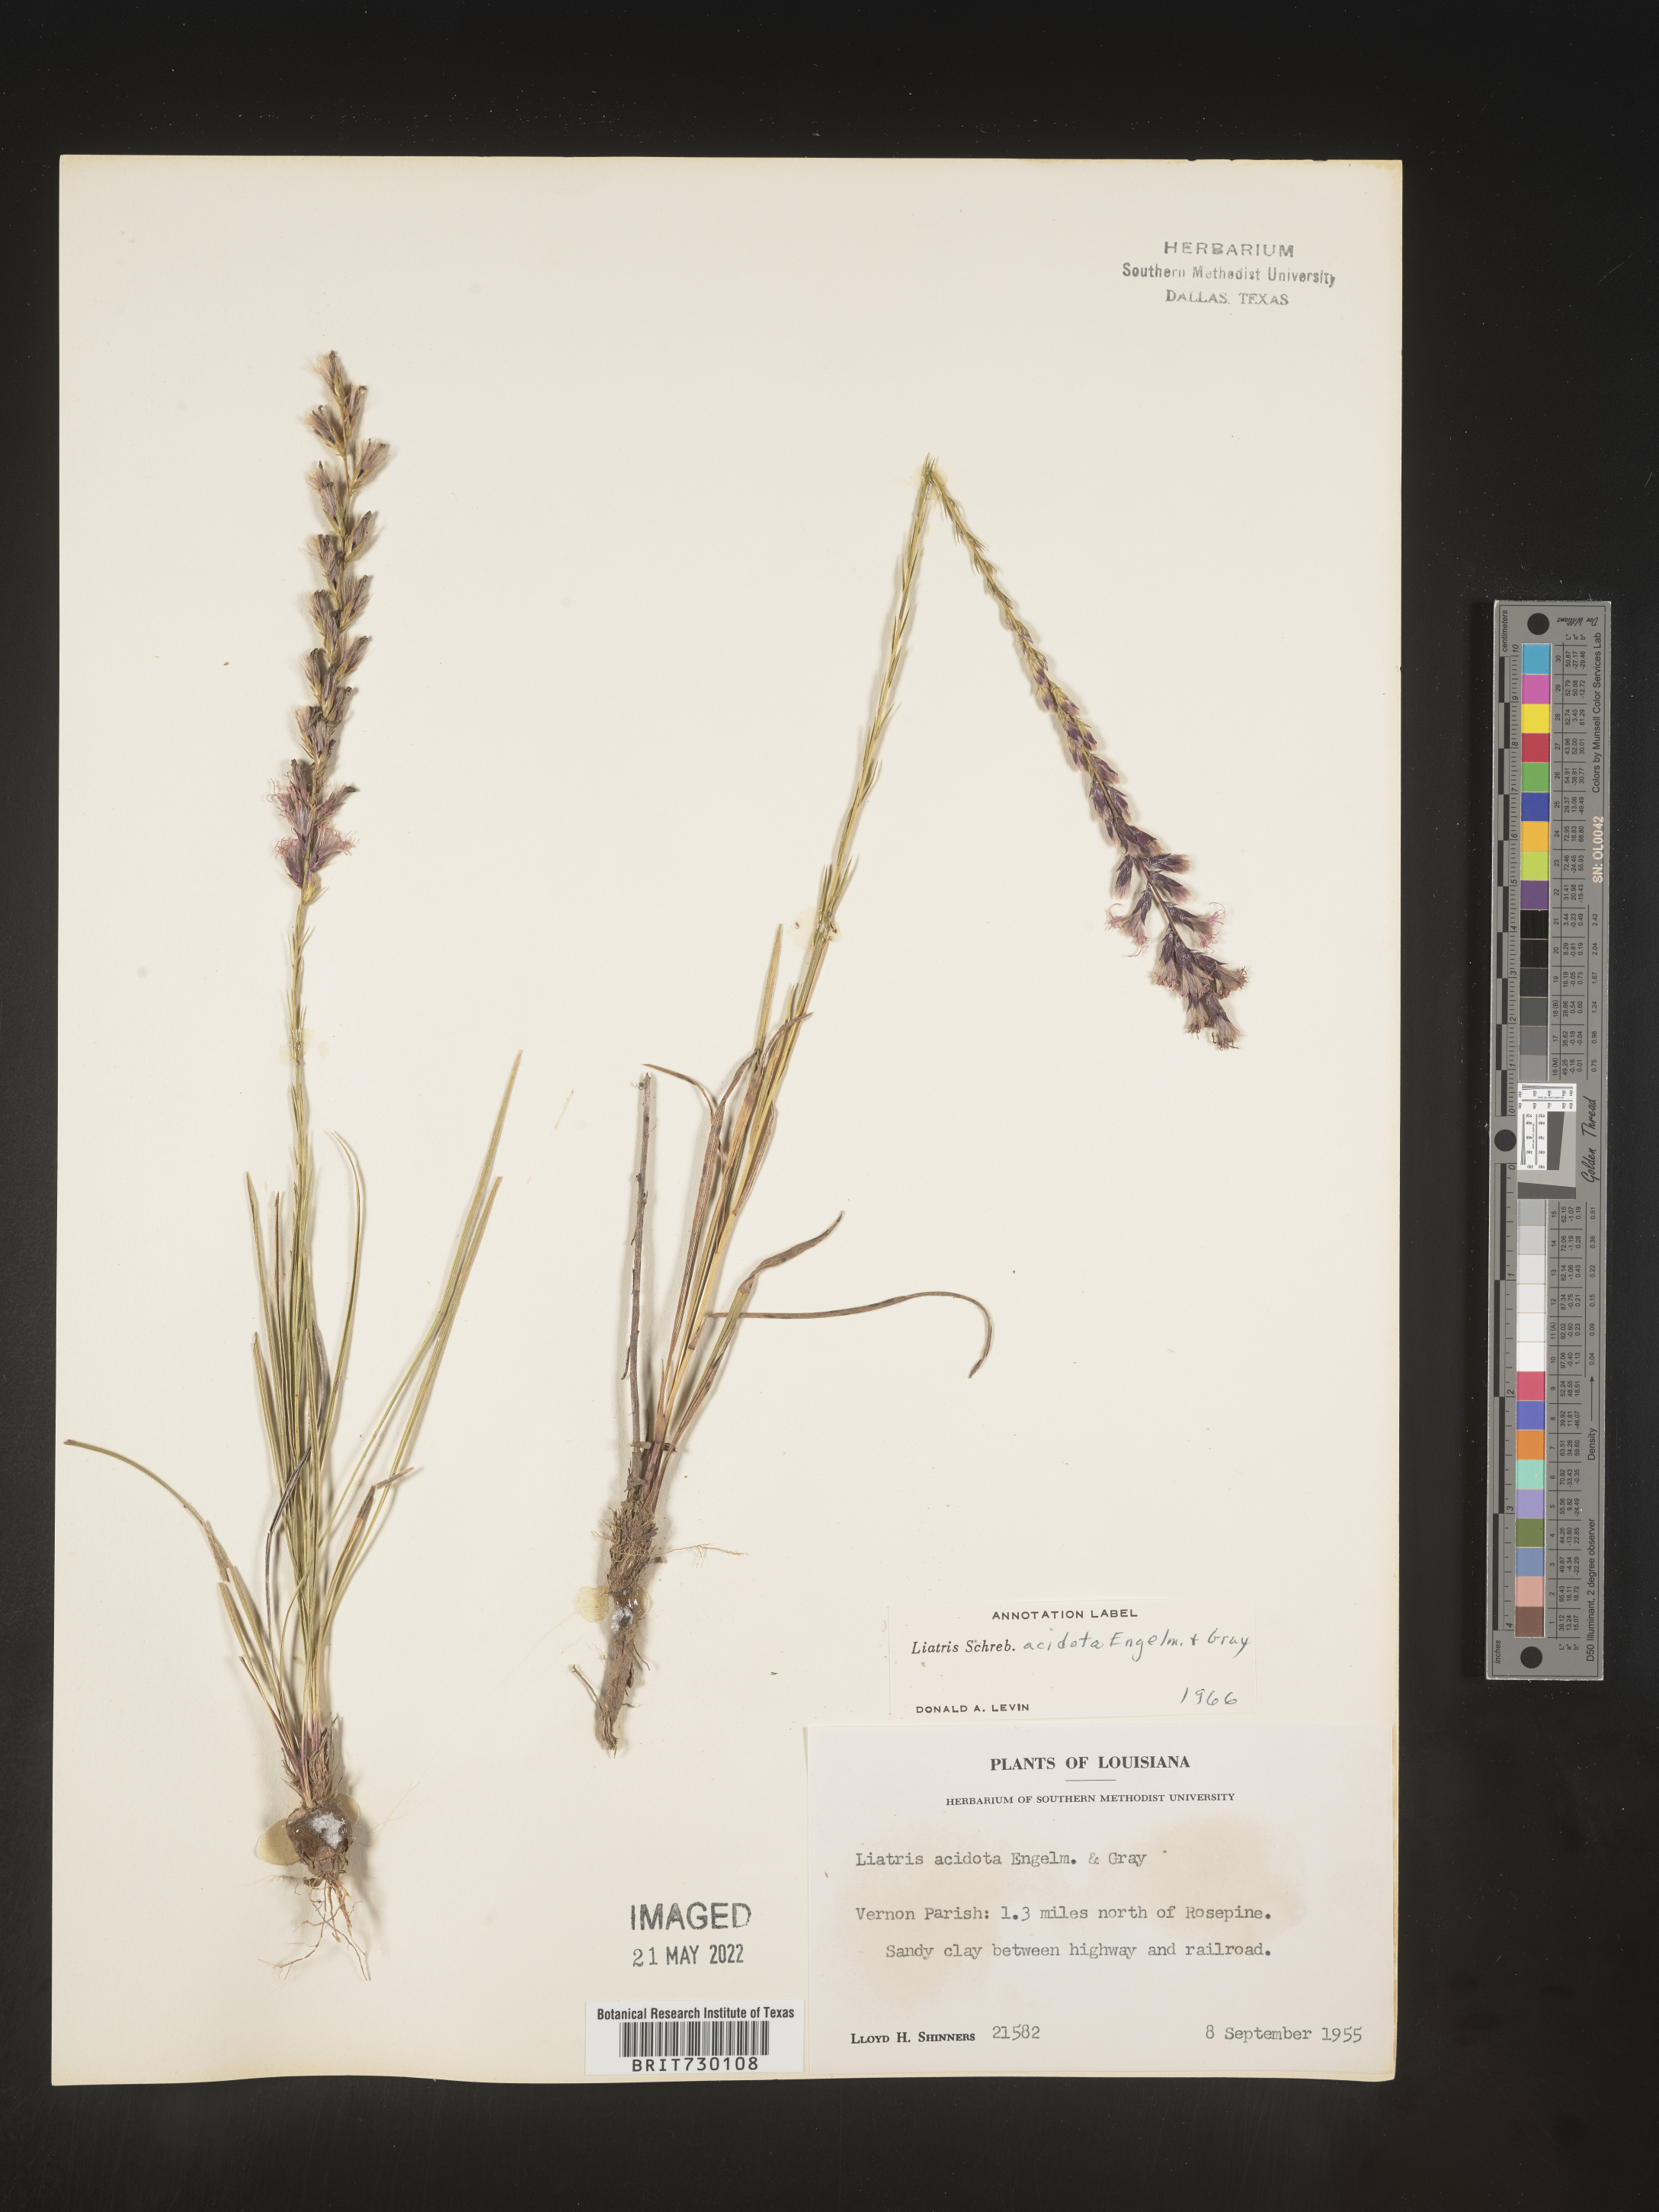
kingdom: Plantae
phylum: Tracheophyta
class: Magnoliopsida
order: Asterales
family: Asteraceae
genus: Liatris
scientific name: Liatris acidota
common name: Gulf coast gayfeather
